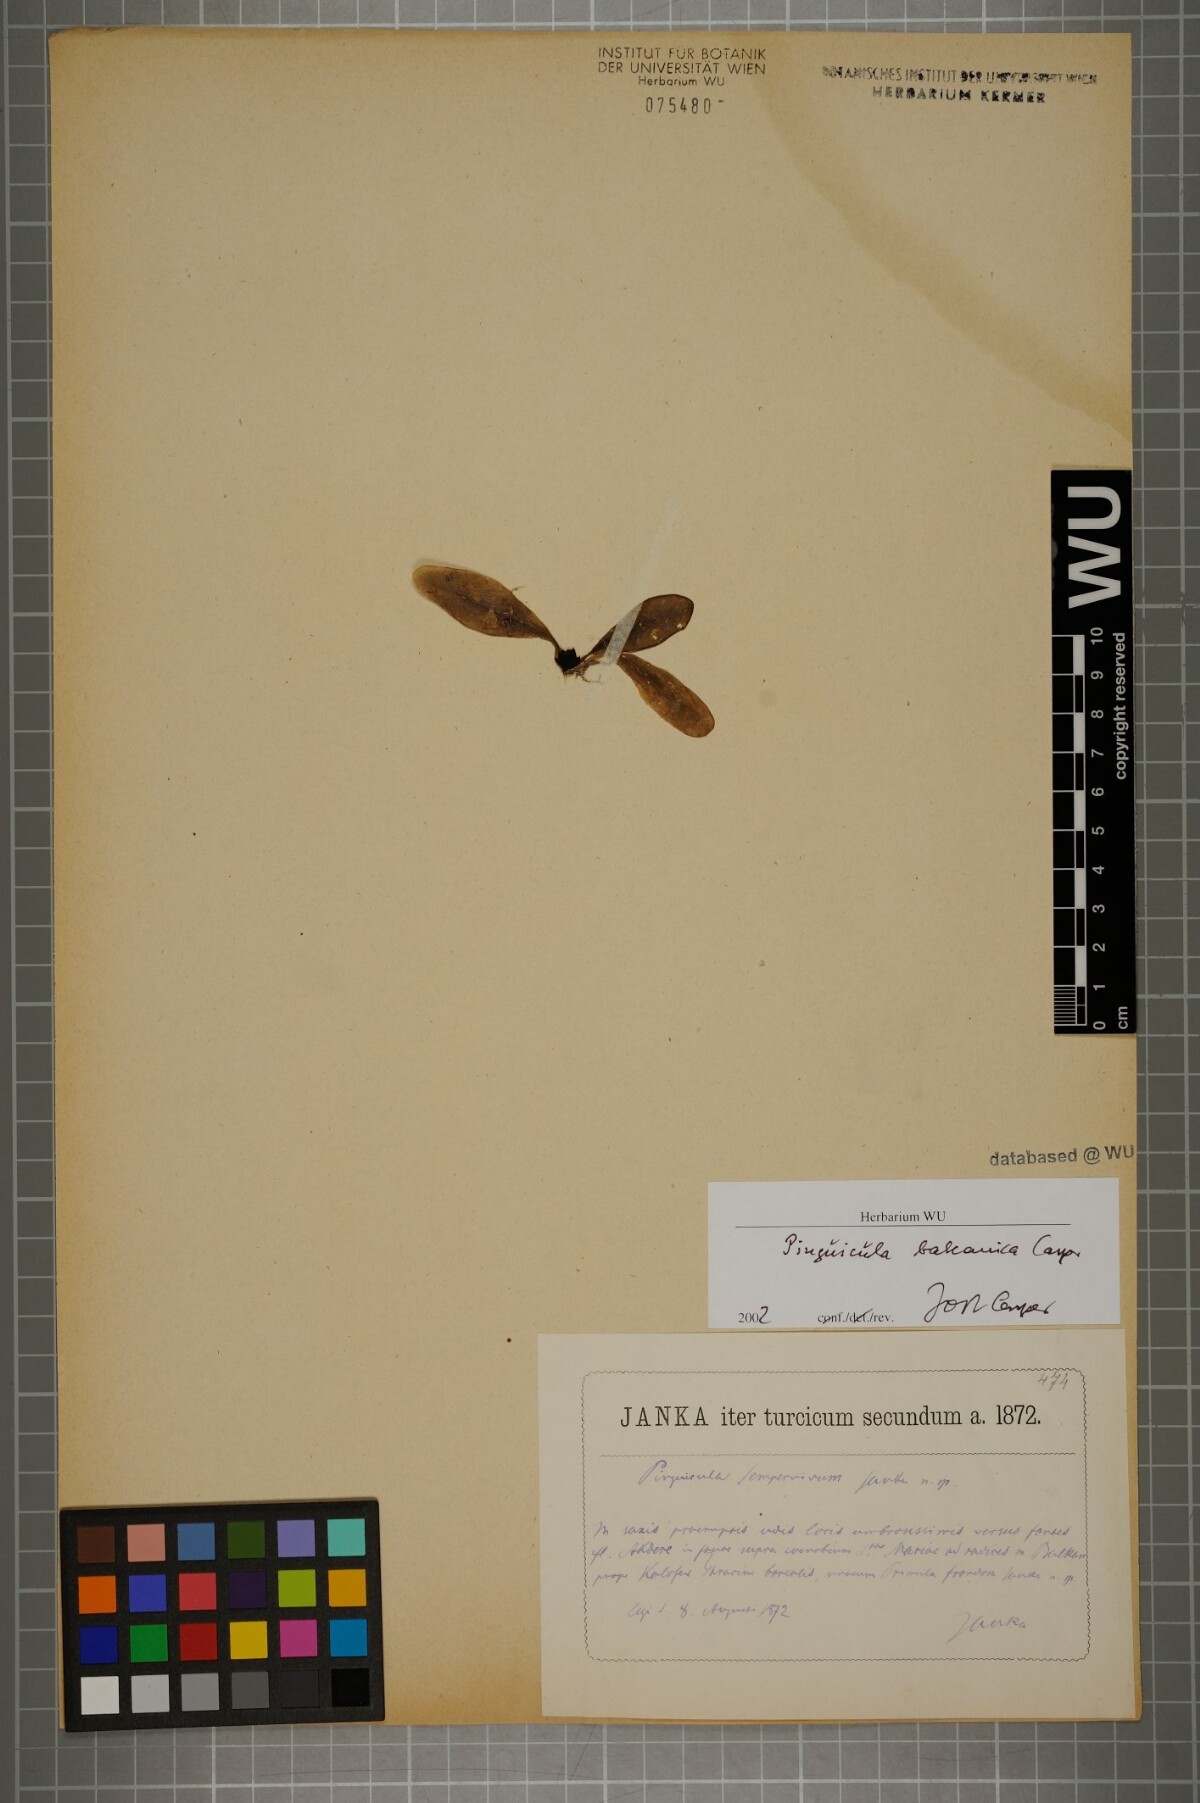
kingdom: Plantae
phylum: Tracheophyta
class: Magnoliopsida
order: Lamiales
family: Lentibulariaceae
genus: Pinguicula
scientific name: Pinguicula balcanica
